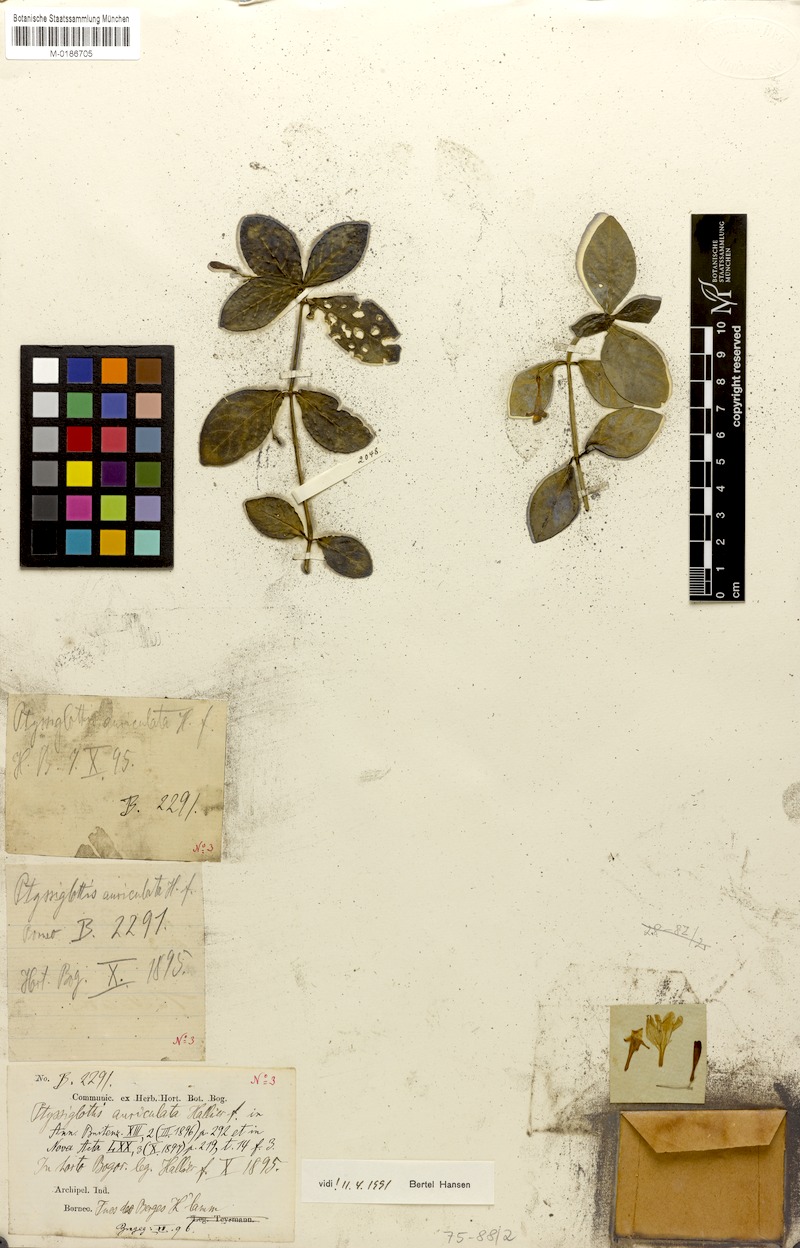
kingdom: Plantae
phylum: Tracheophyta
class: Magnoliopsida
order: Lamiales
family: Acanthaceae
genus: Ptyssiglottis
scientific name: Ptyssiglottis auriculata
